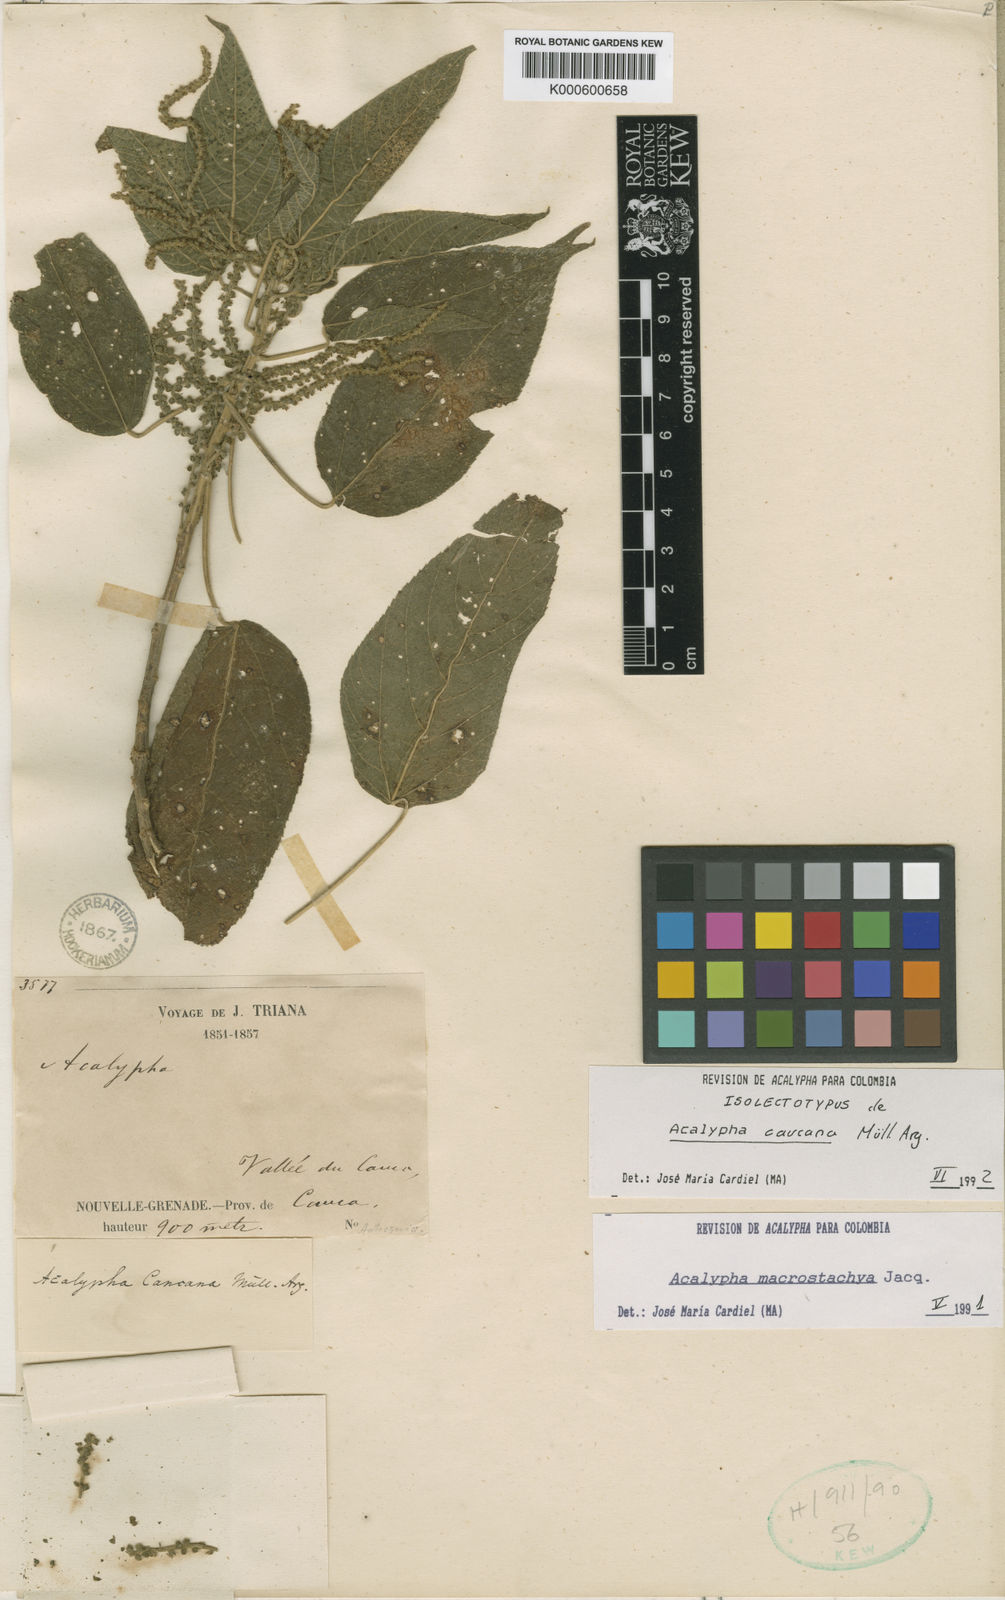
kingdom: Plantae
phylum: Tracheophyta
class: Magnoliopsida
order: Malpighiales
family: Euphorbiaceae
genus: Acalypha
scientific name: Acalypha macrostachya
